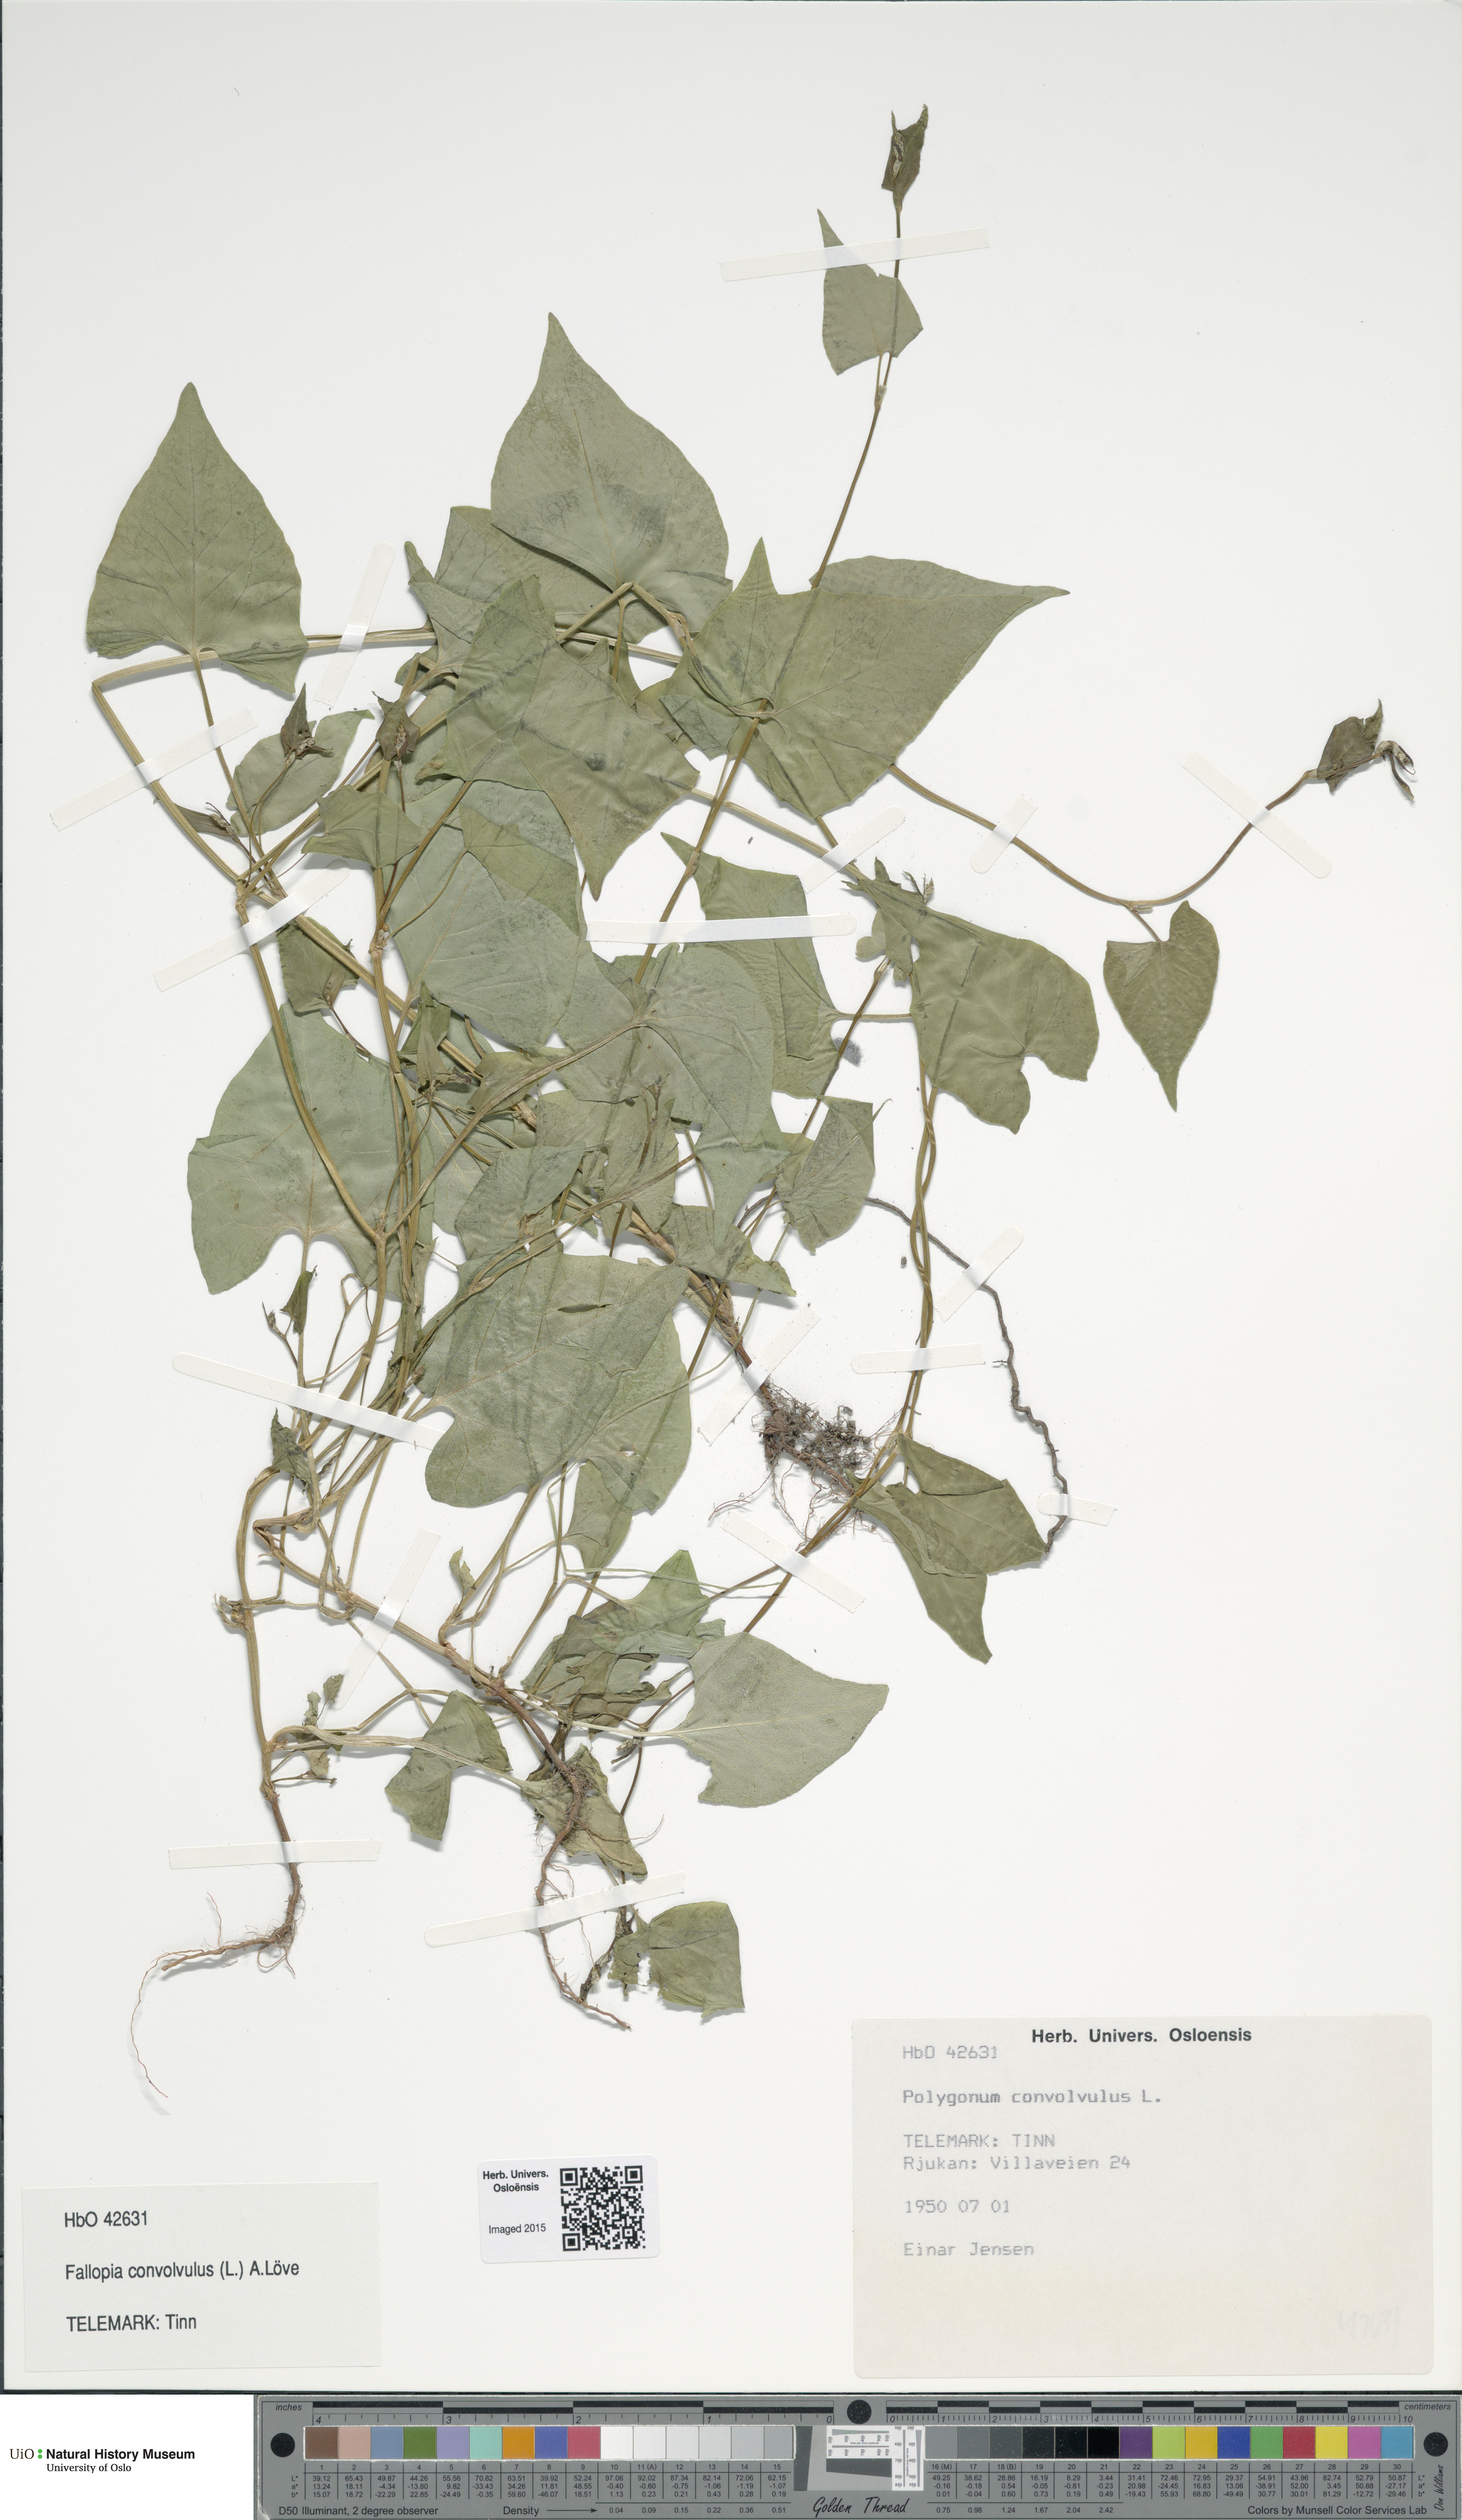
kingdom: Plantae
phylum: Tracheophyta
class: Magnoliopsida
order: Caryophyllales
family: Polygonaceae
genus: Fallopia
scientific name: Fallopia convolvulus
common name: Black bindweed
